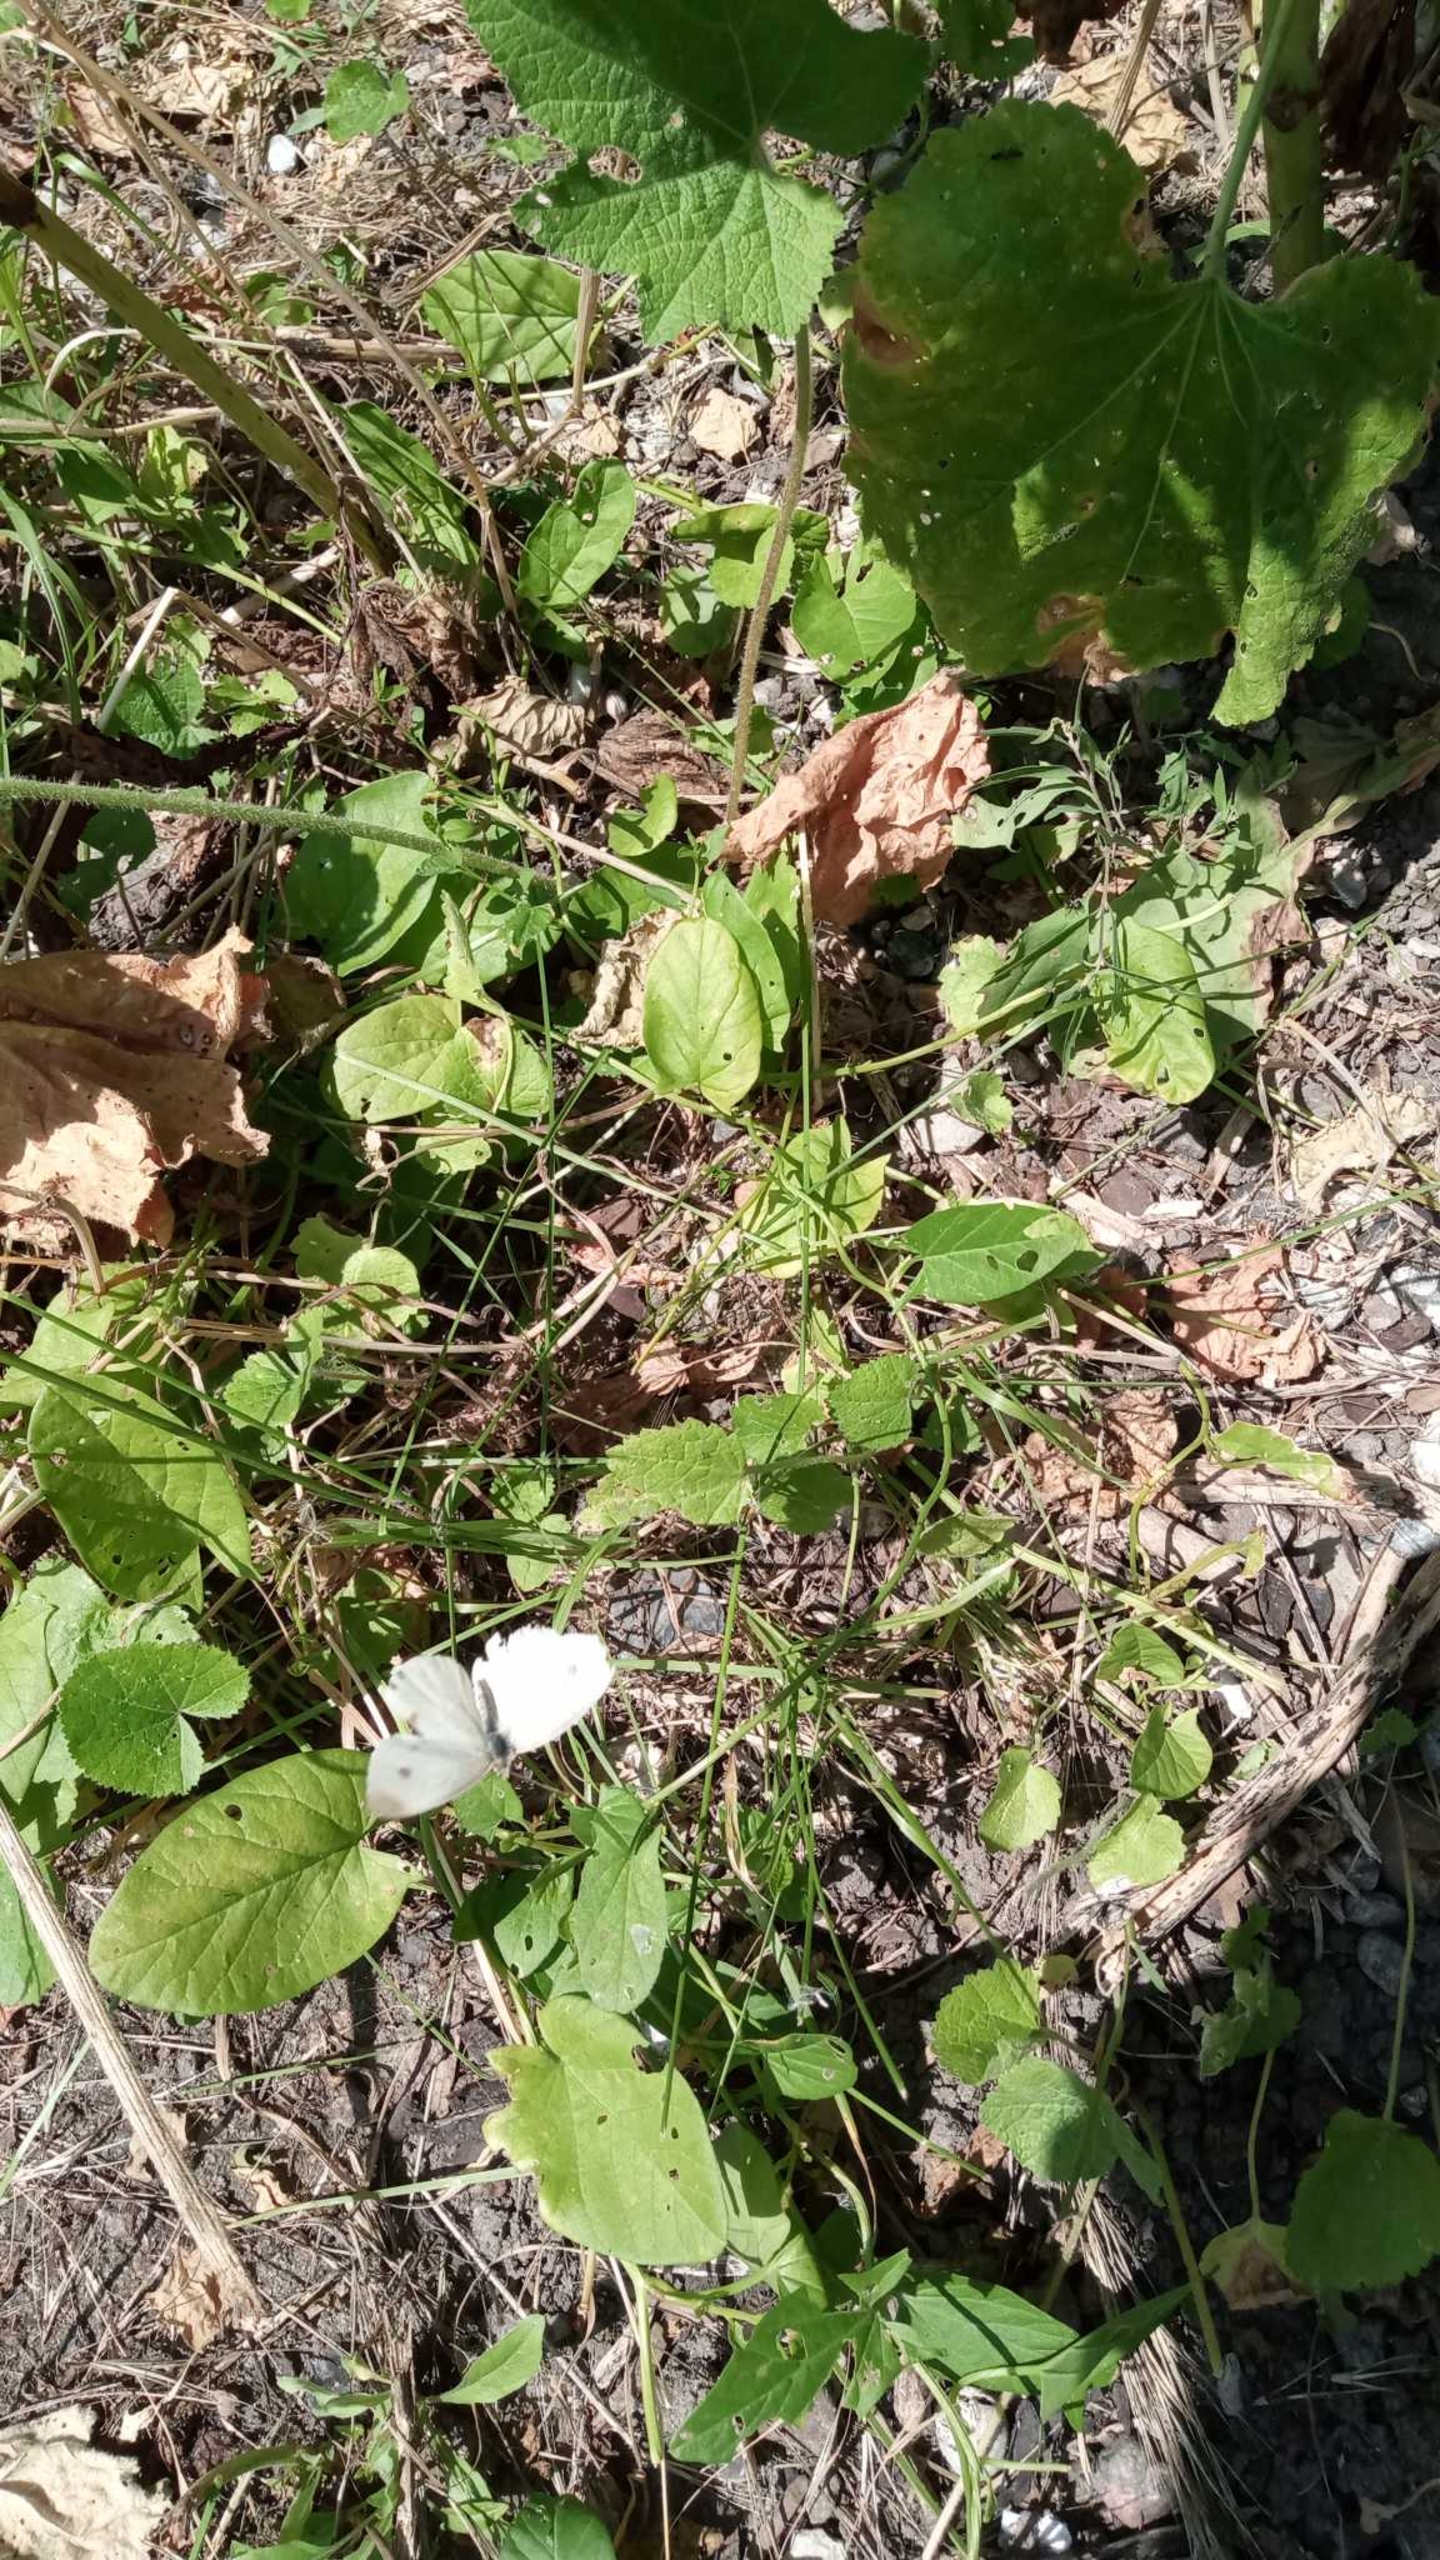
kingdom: Animalia
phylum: Arthropoda
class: Insecta
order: Lepidoptera
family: Pieridae
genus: Pieris
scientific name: Pieris rapae
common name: Lille kålsommerfugl
